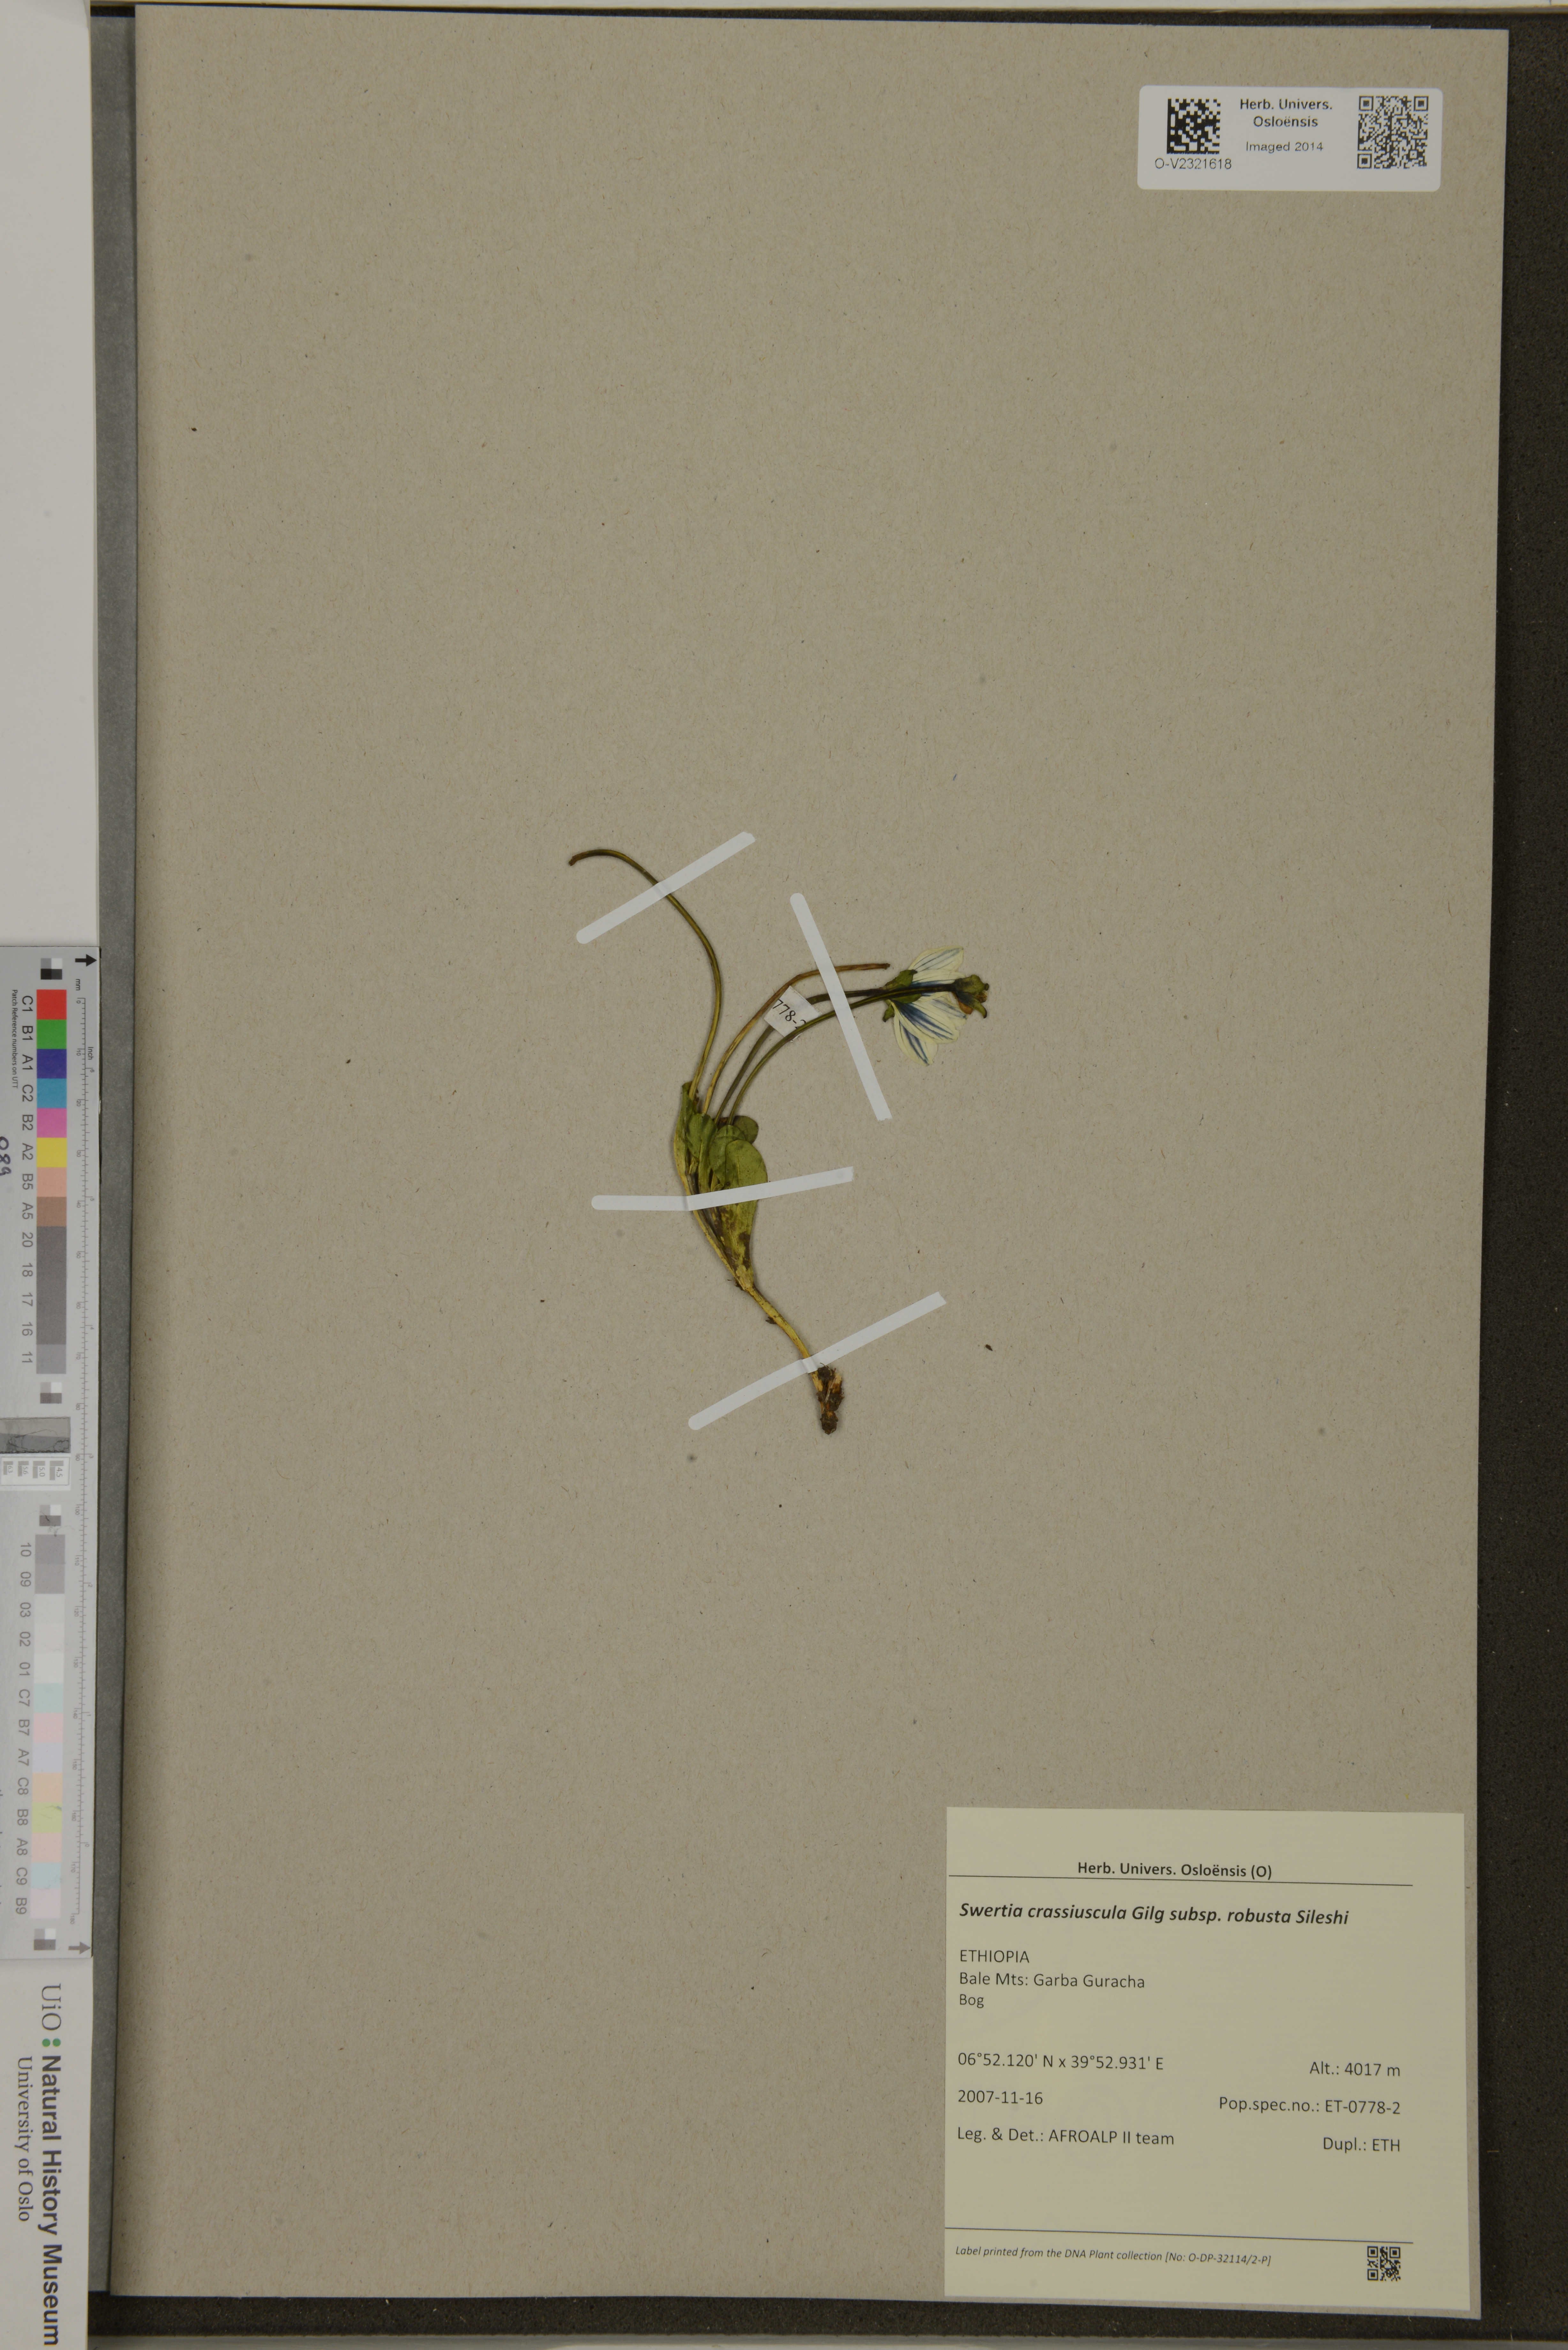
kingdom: Plantae
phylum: Tracheophyta
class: Magnoliopsida
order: Gentianales
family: Gentianaceae
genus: Swertia
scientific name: Swertia crassiuscula
